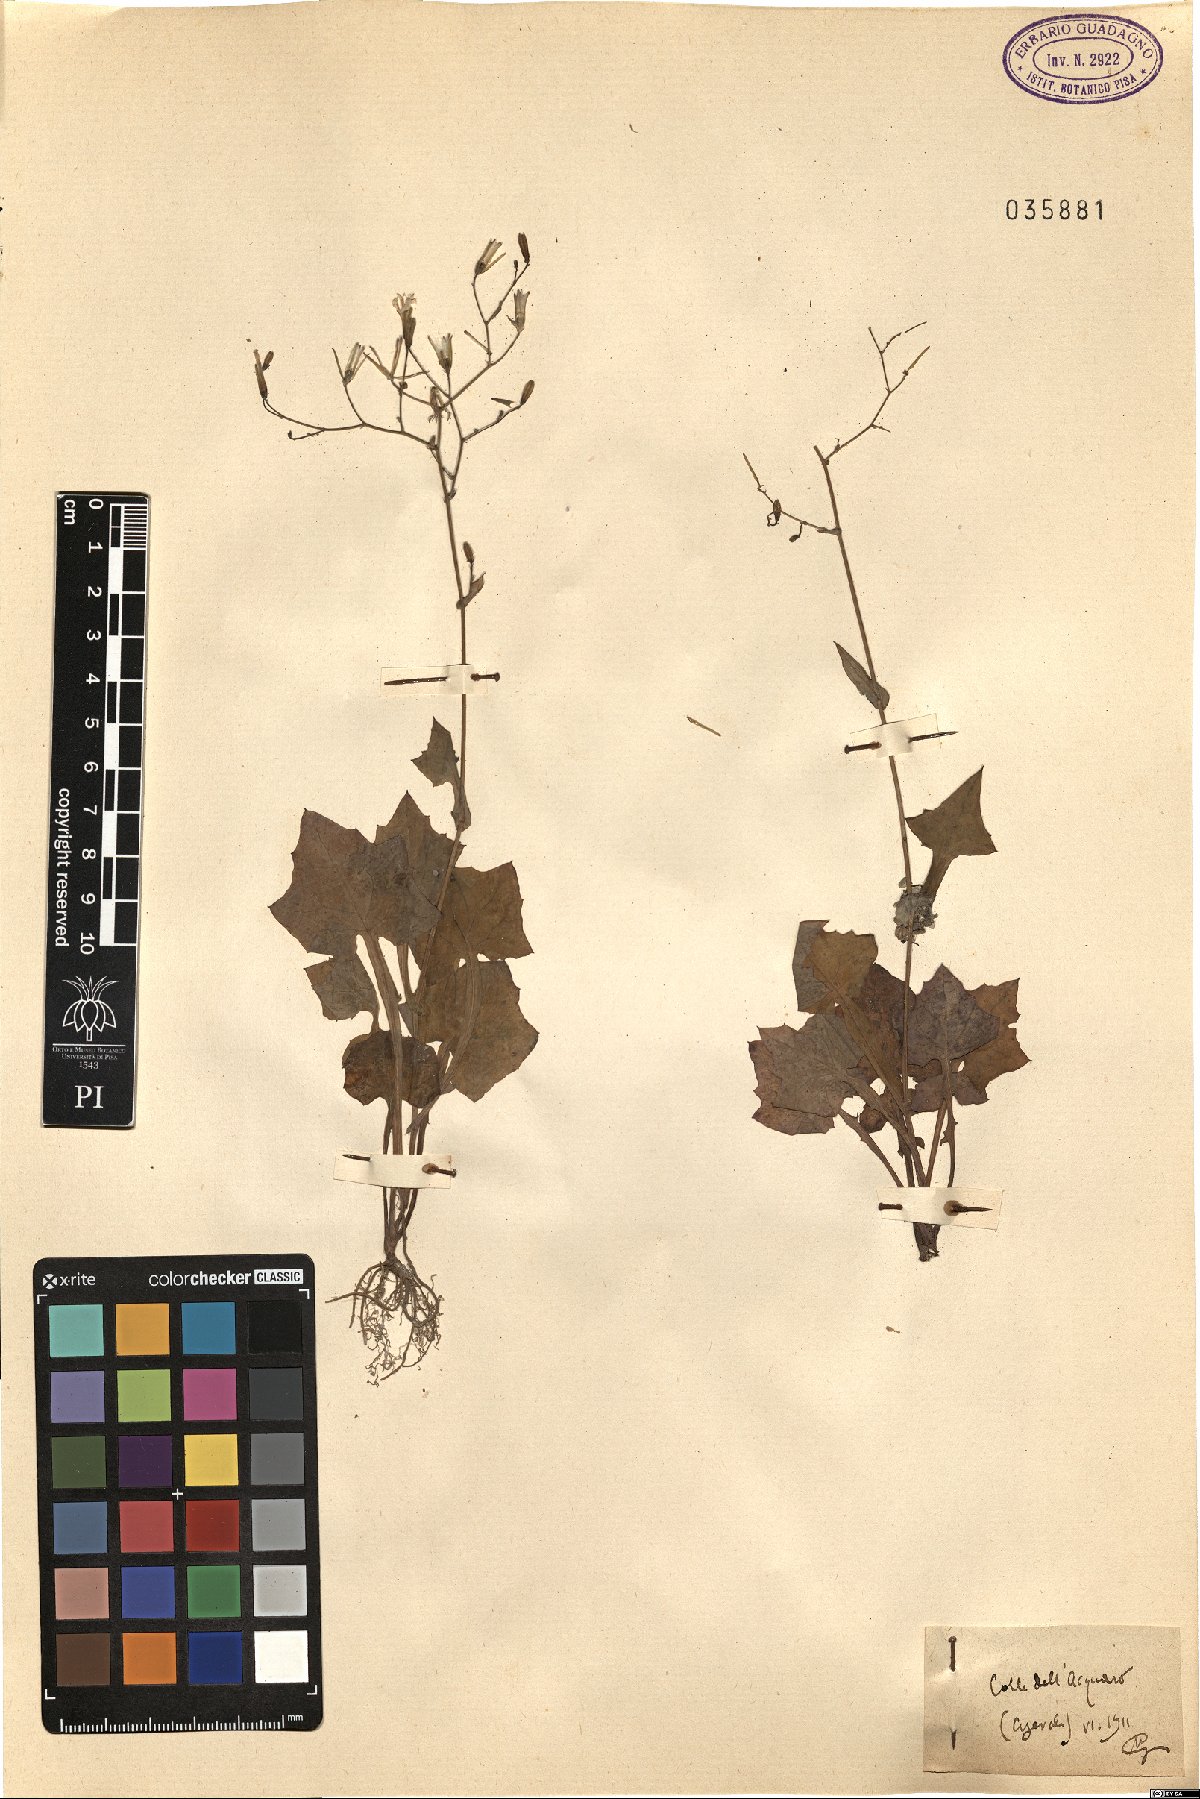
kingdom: Plantae
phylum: Tracheophyta
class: Magnoliopsida
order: Asterales
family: Asteraceae
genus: Lactuca
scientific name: Lactuca
